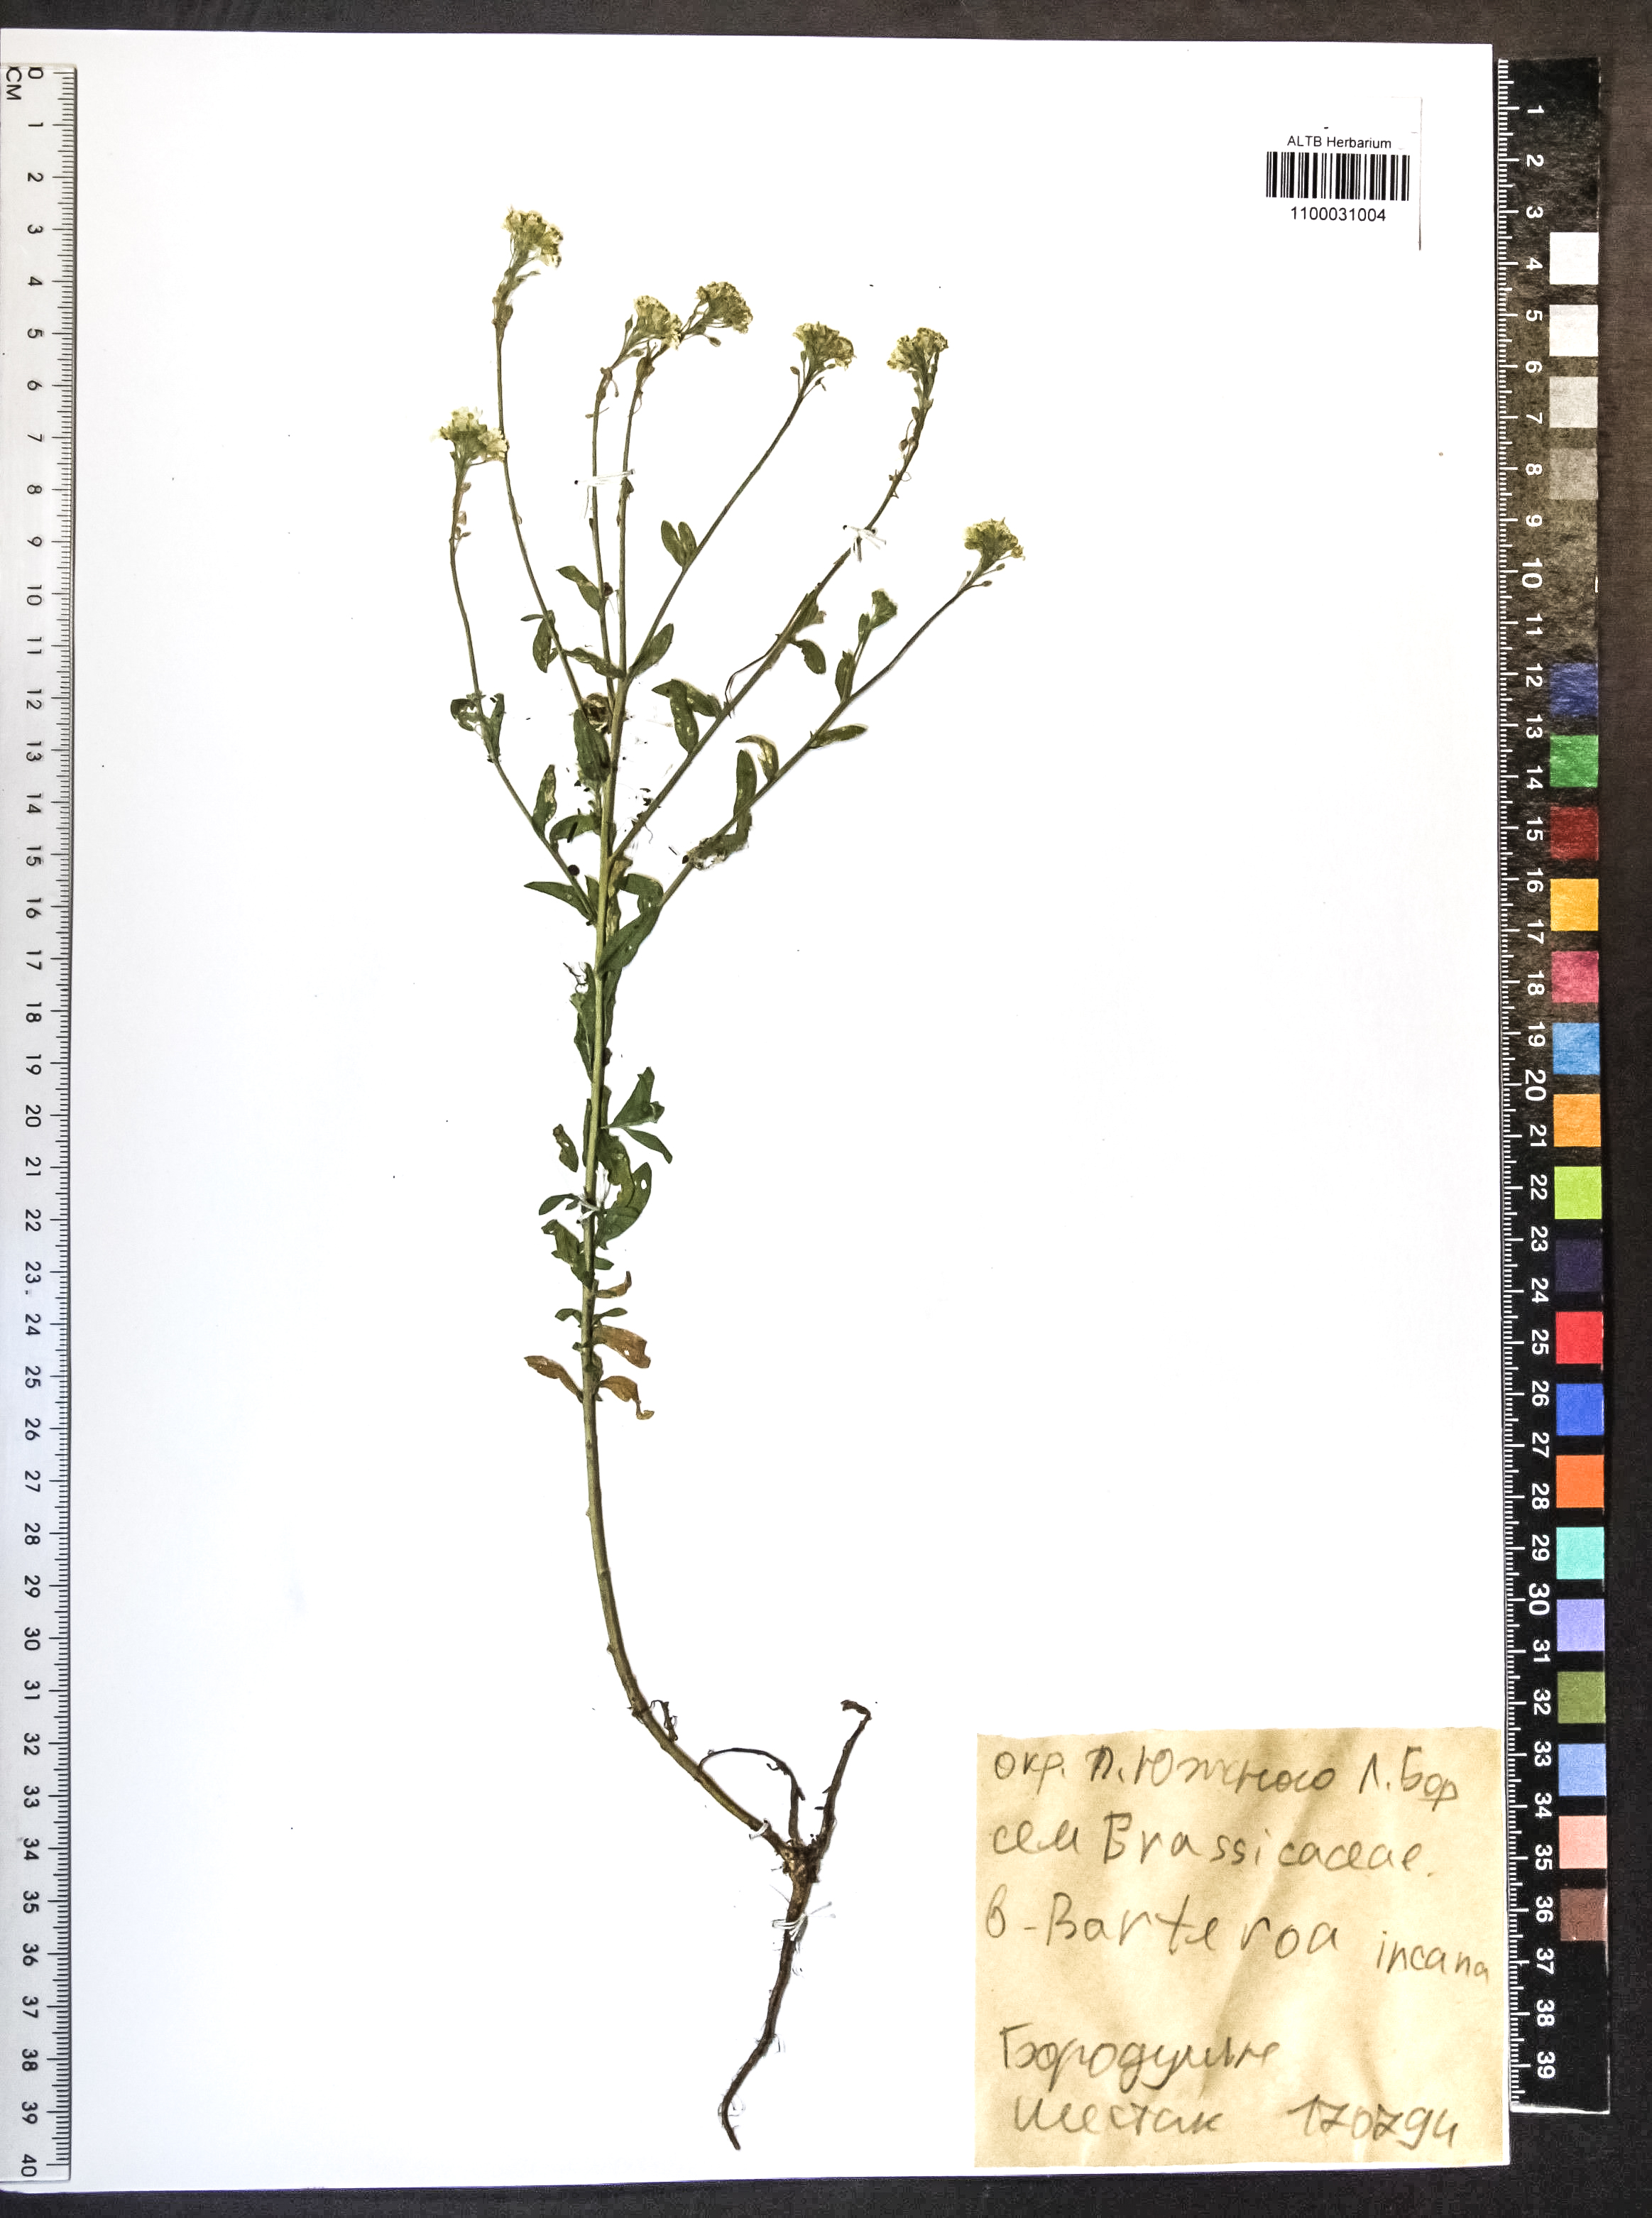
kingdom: Plantae
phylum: Tracheophyta
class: Magnoliopsida
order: Brassicales
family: Brassicaceae
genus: Berteroa
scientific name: Berteroa incana
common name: Hoary alison
